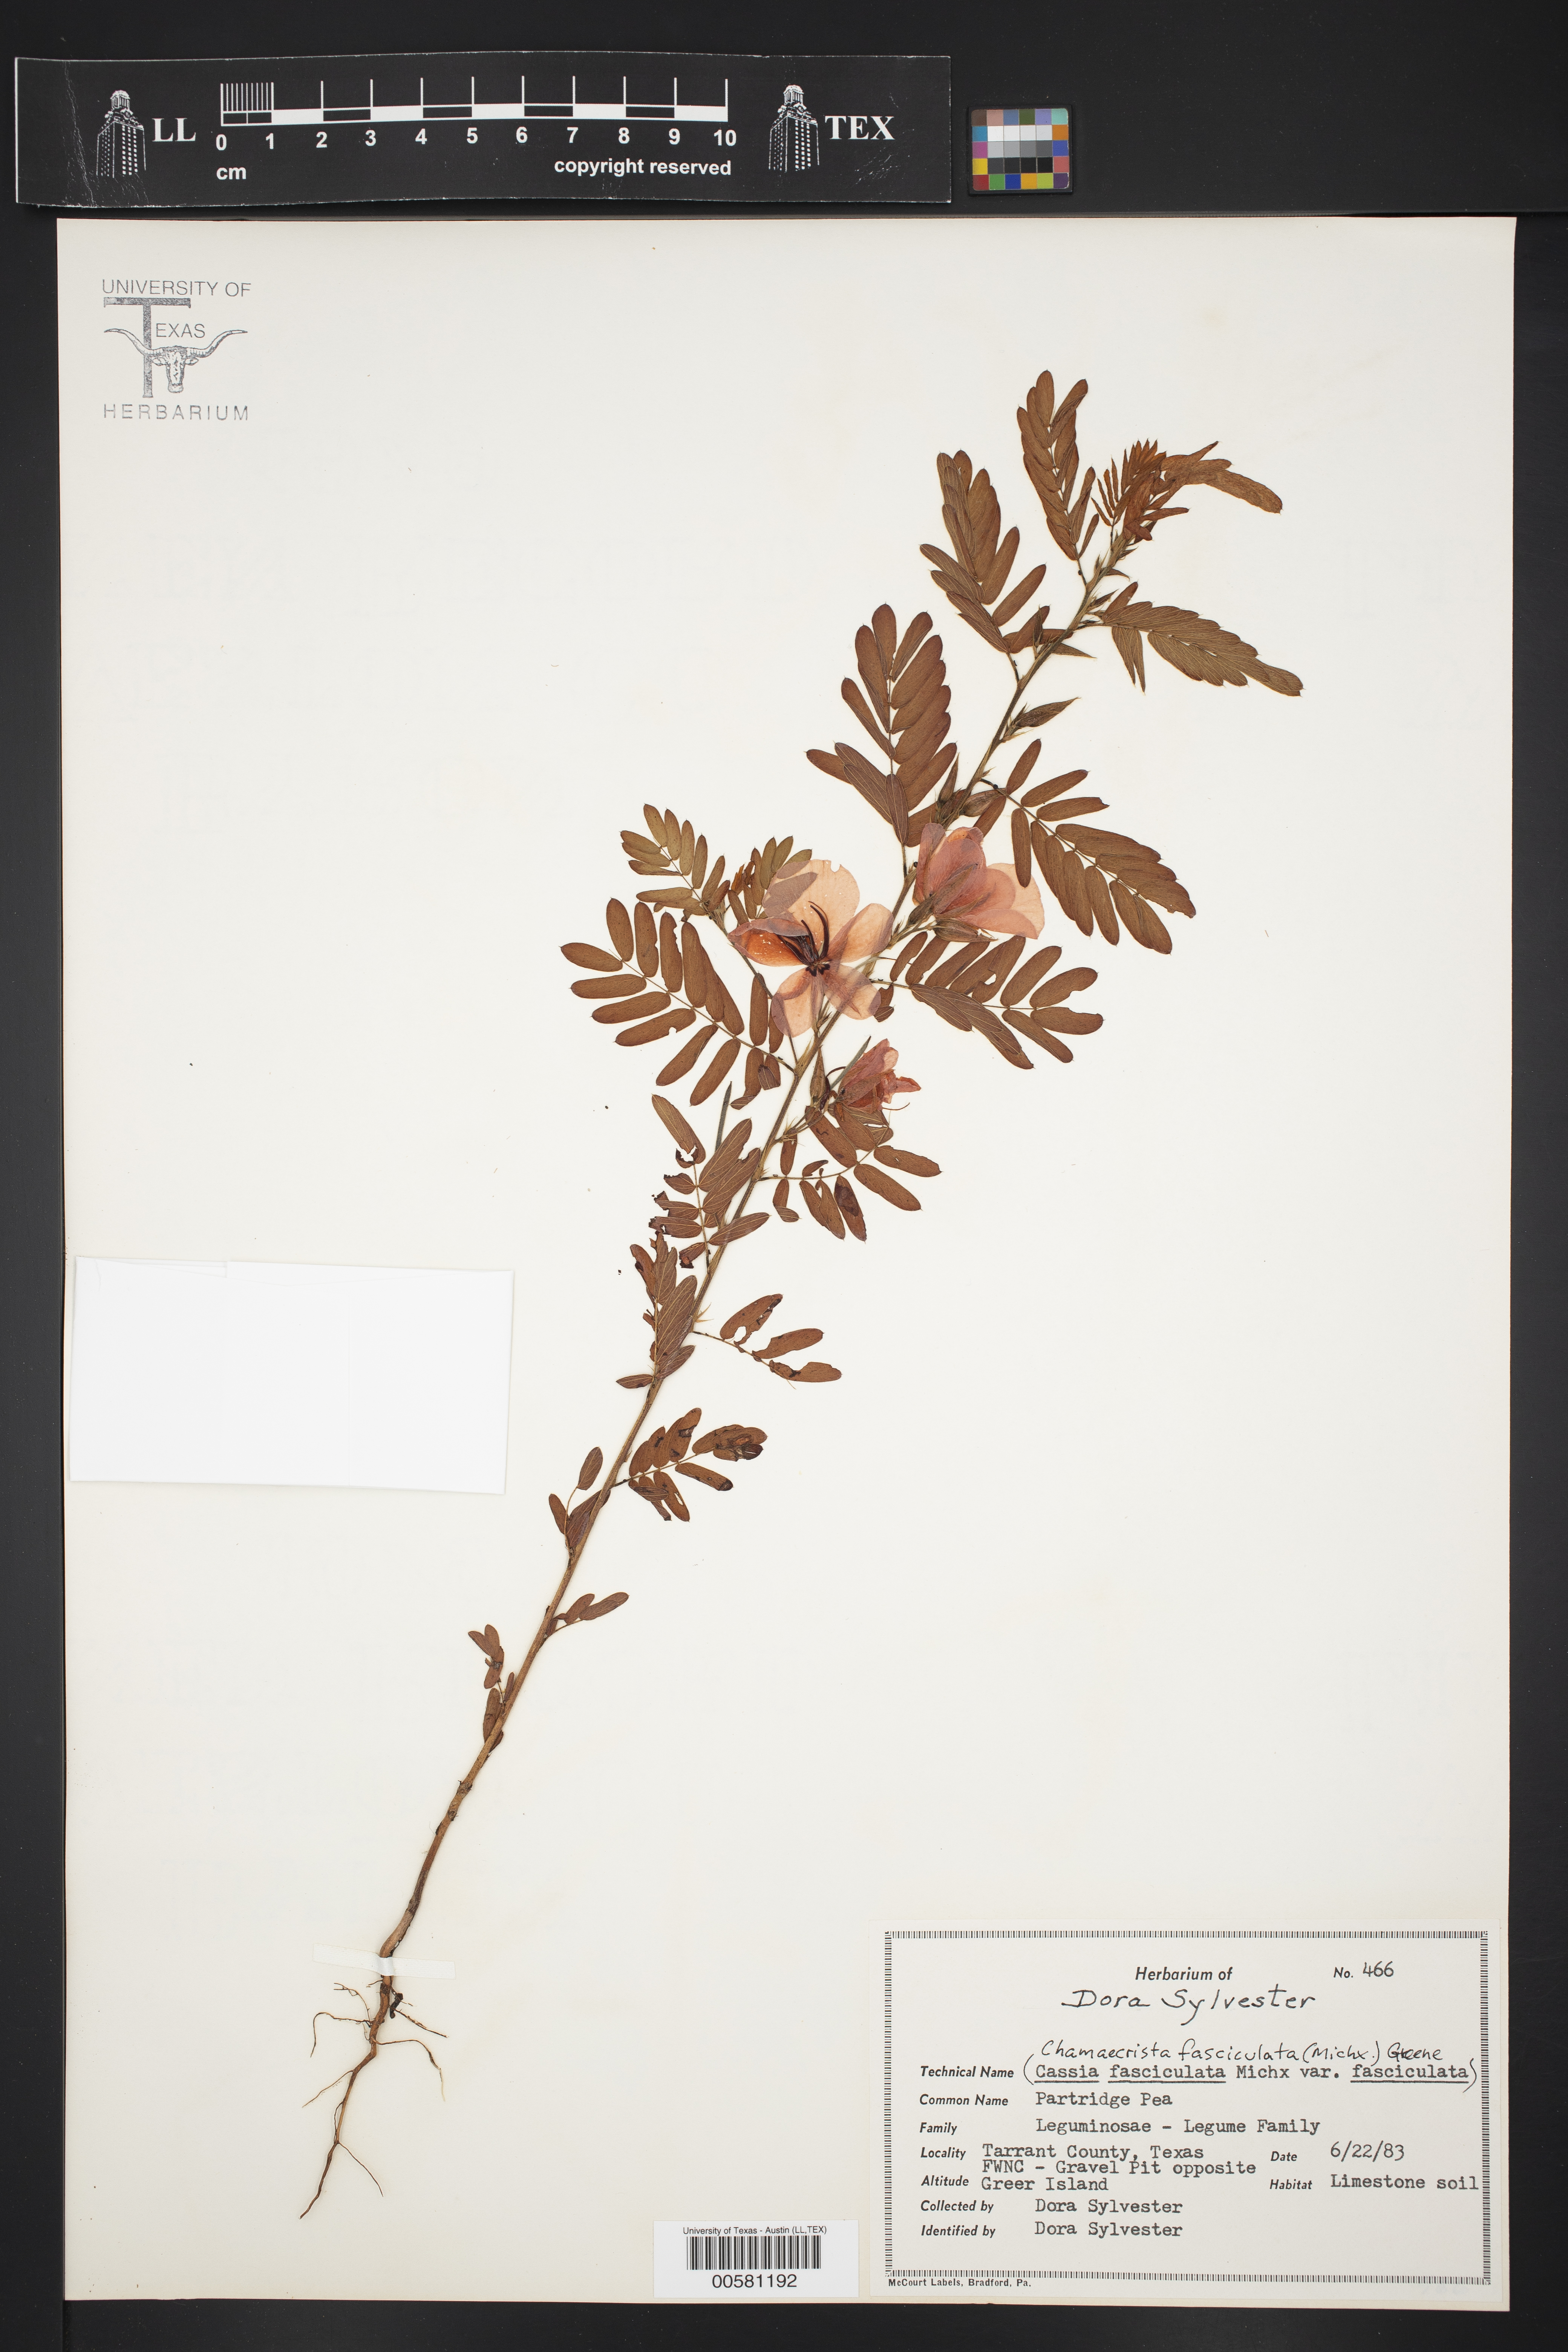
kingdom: Plantae
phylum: Tracheophyta
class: Magnoliopsida
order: Fabales
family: Fabaceae
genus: Chamaecrista
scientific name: Chamaecrista fasciculata
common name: Golden cassia
